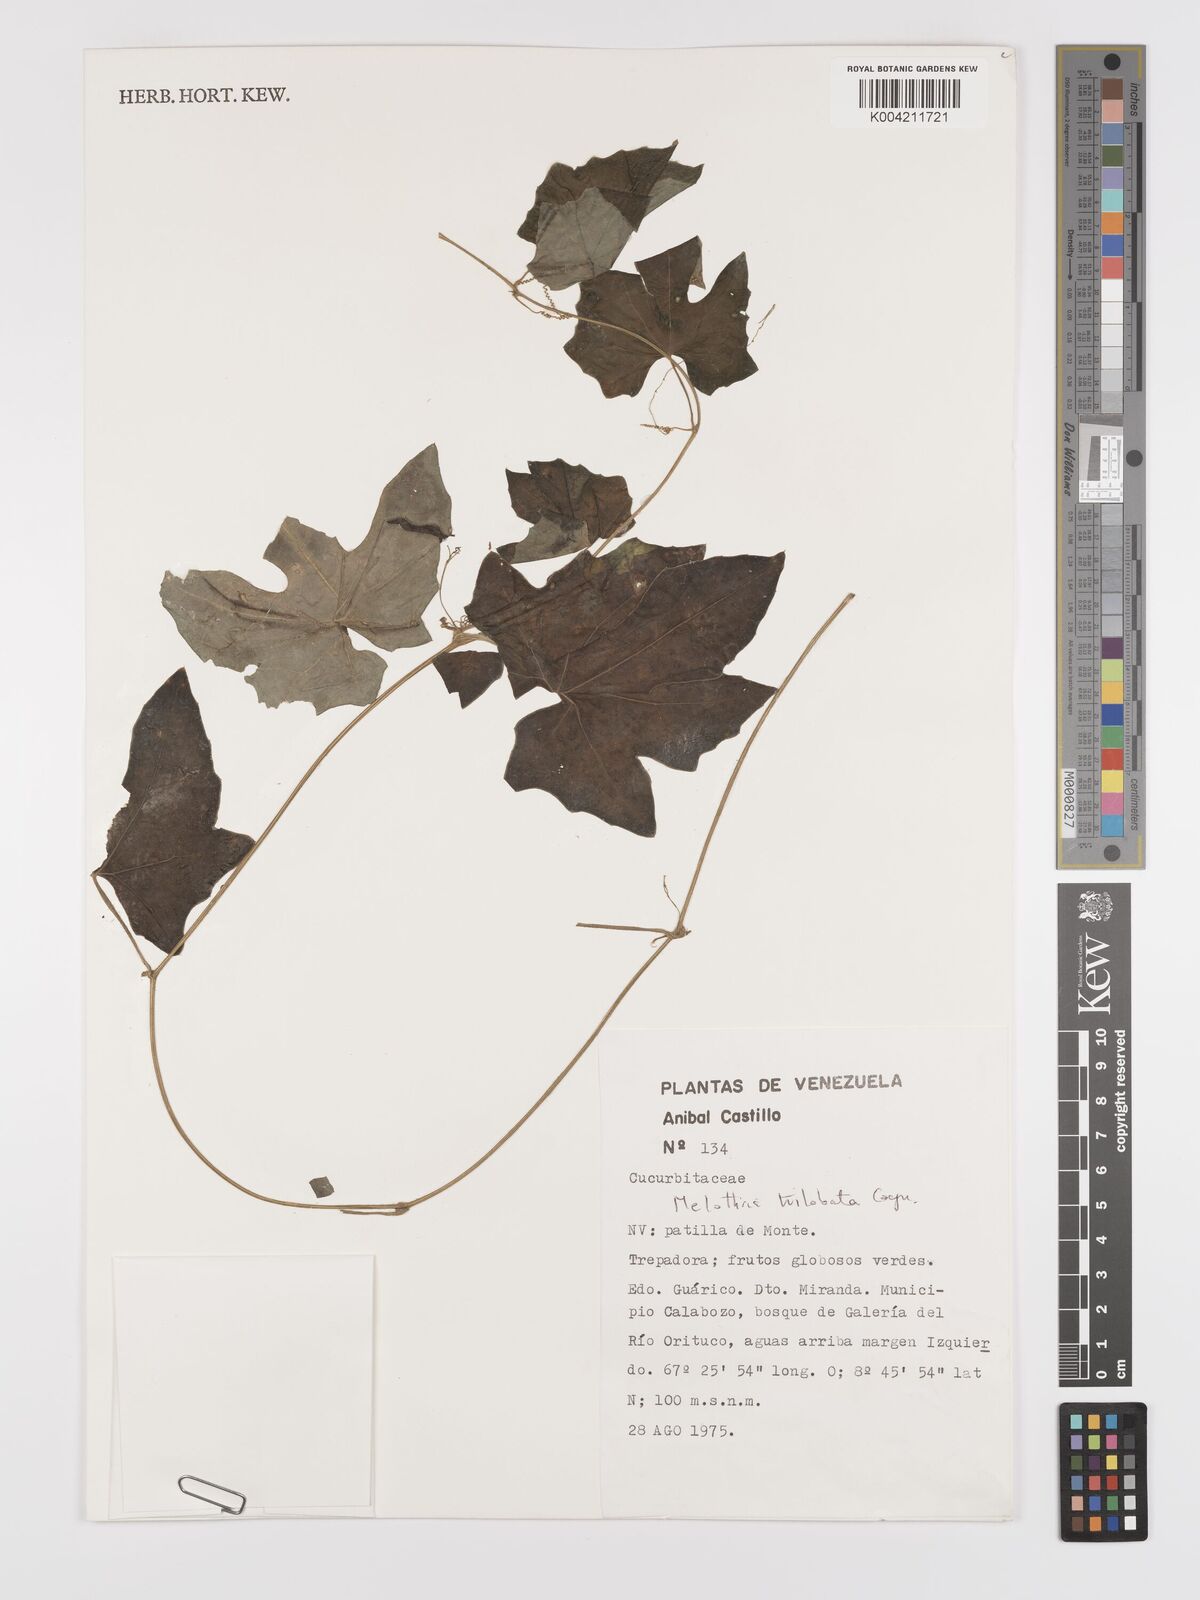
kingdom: Plantae
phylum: Tracheophyta
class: Magnoliopsida
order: Cucurbitales
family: Cucurbitaceae
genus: Melothria
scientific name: Melothria trilobata
